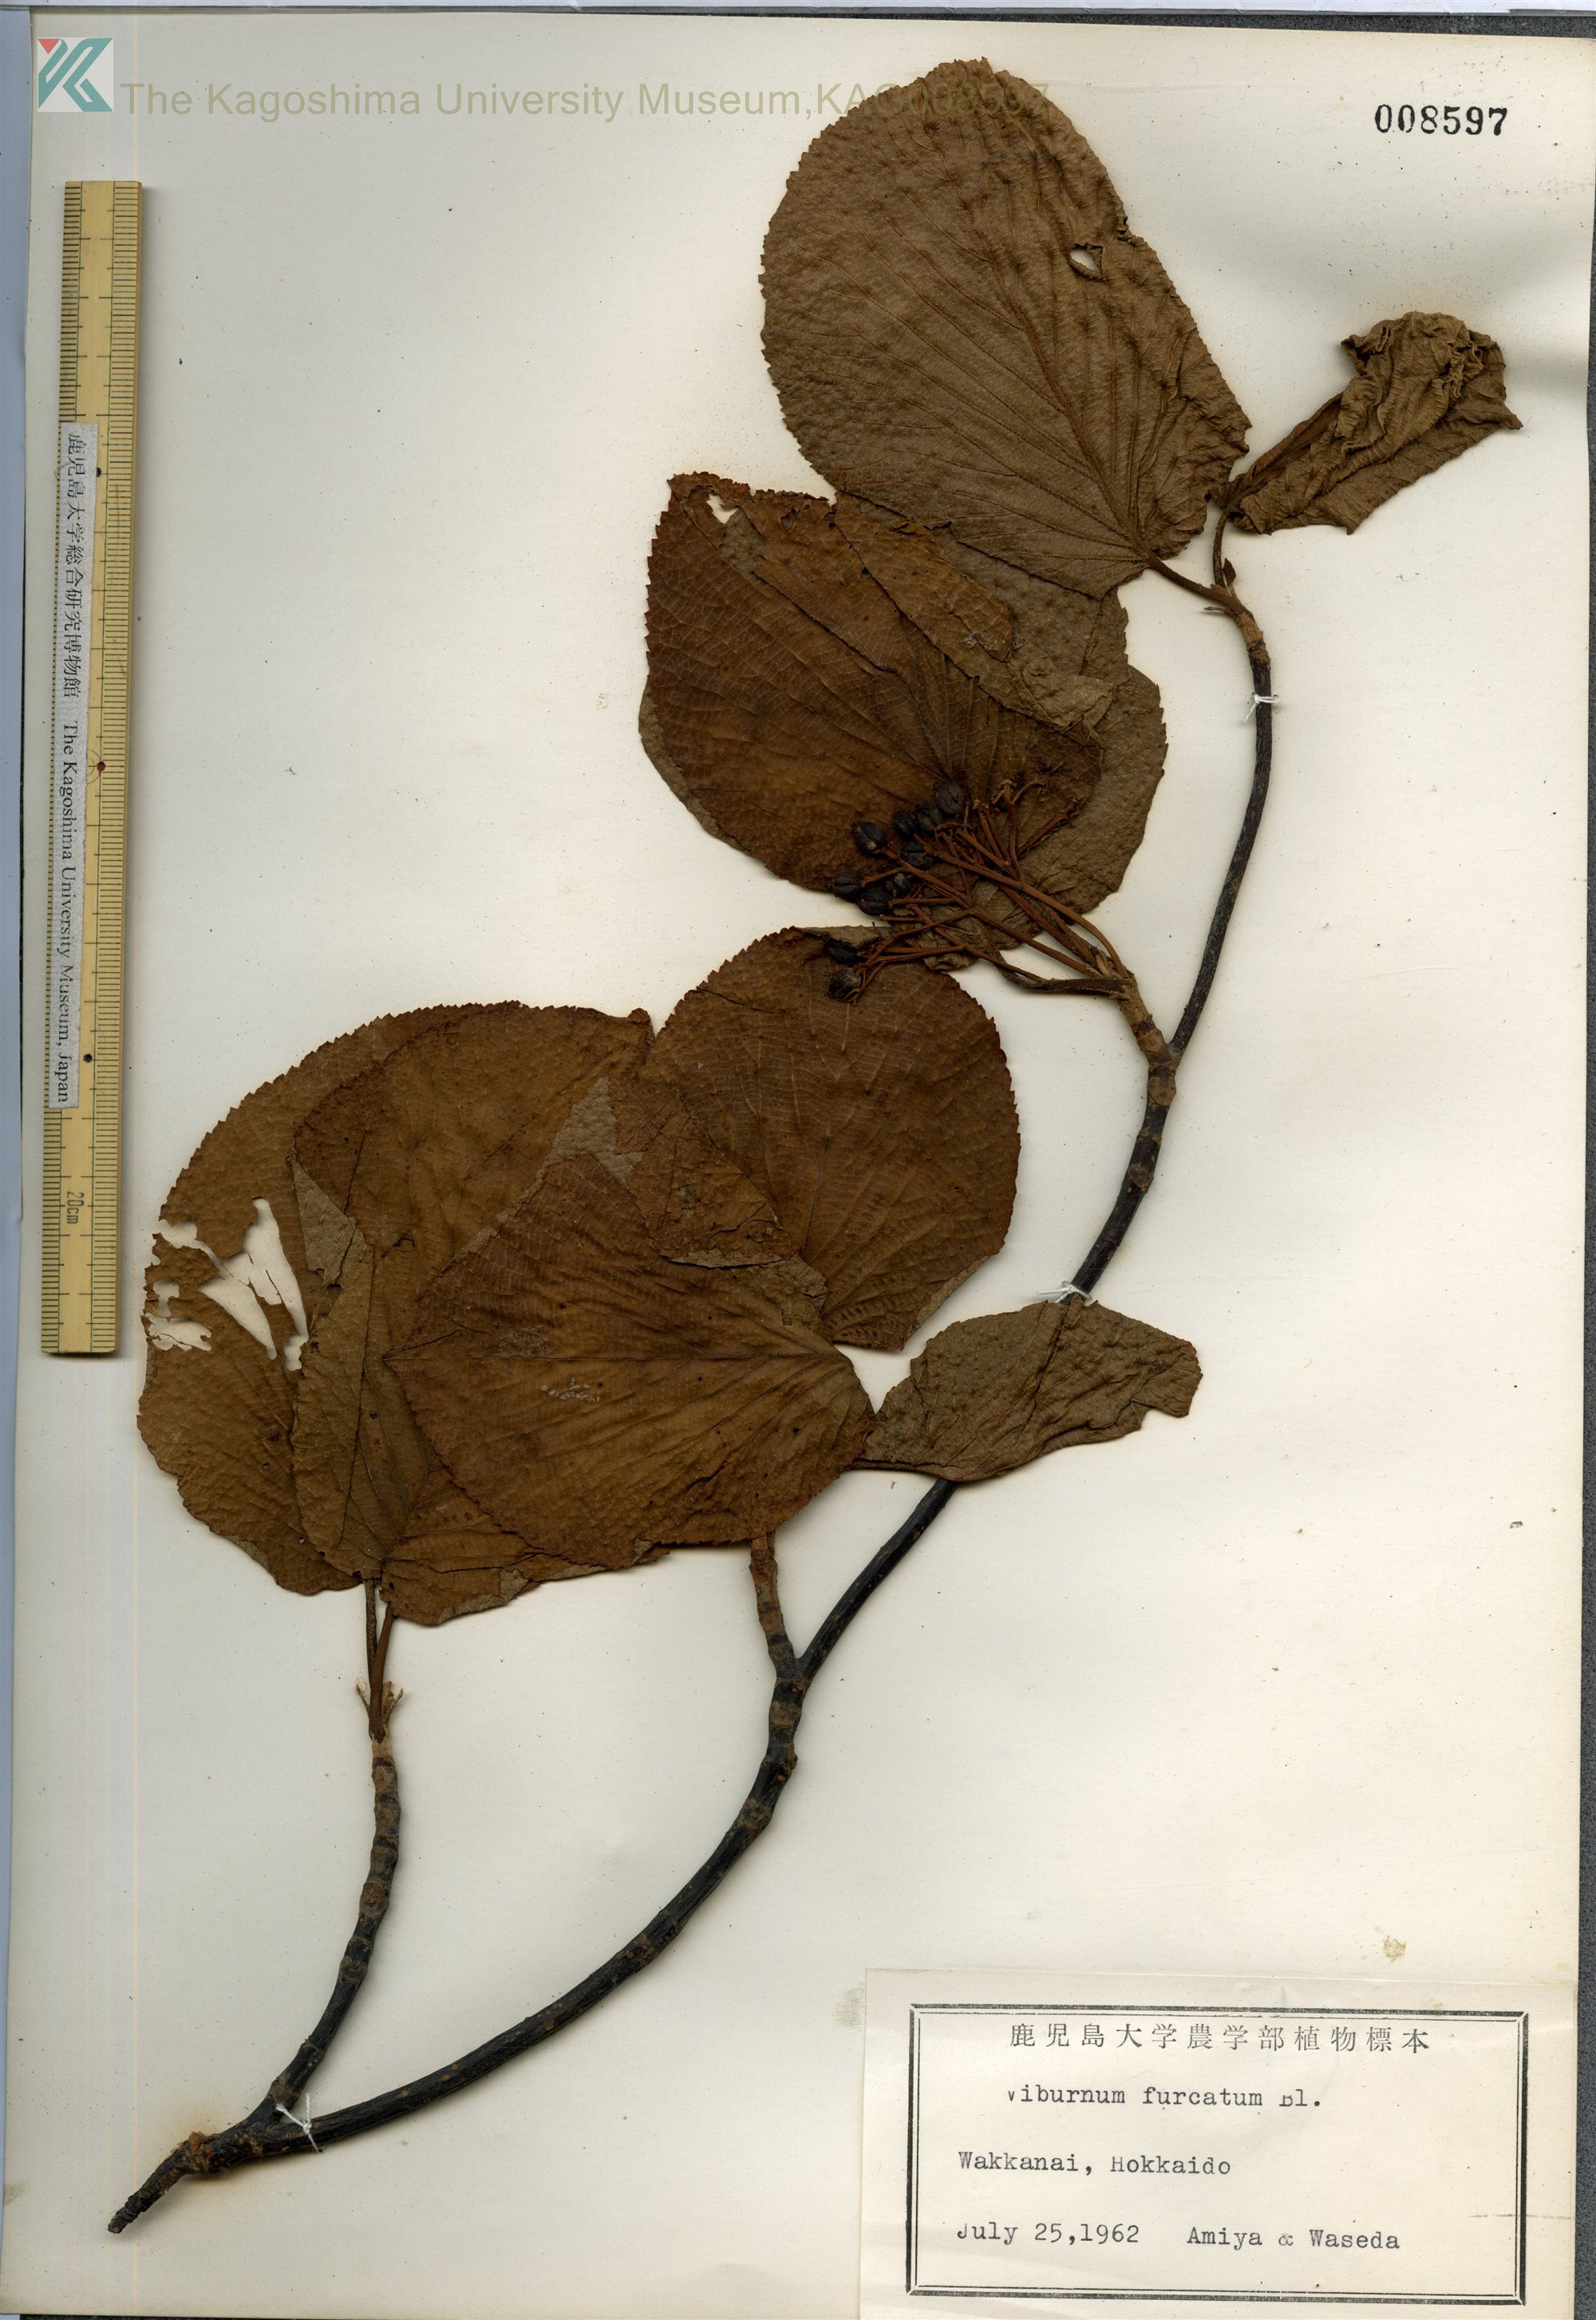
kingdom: Plantae
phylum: Tracheophyta
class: Magnoliopsida
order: Dipsacales
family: Viburnaceae
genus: Viburnum
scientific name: Viburnum furcatum
